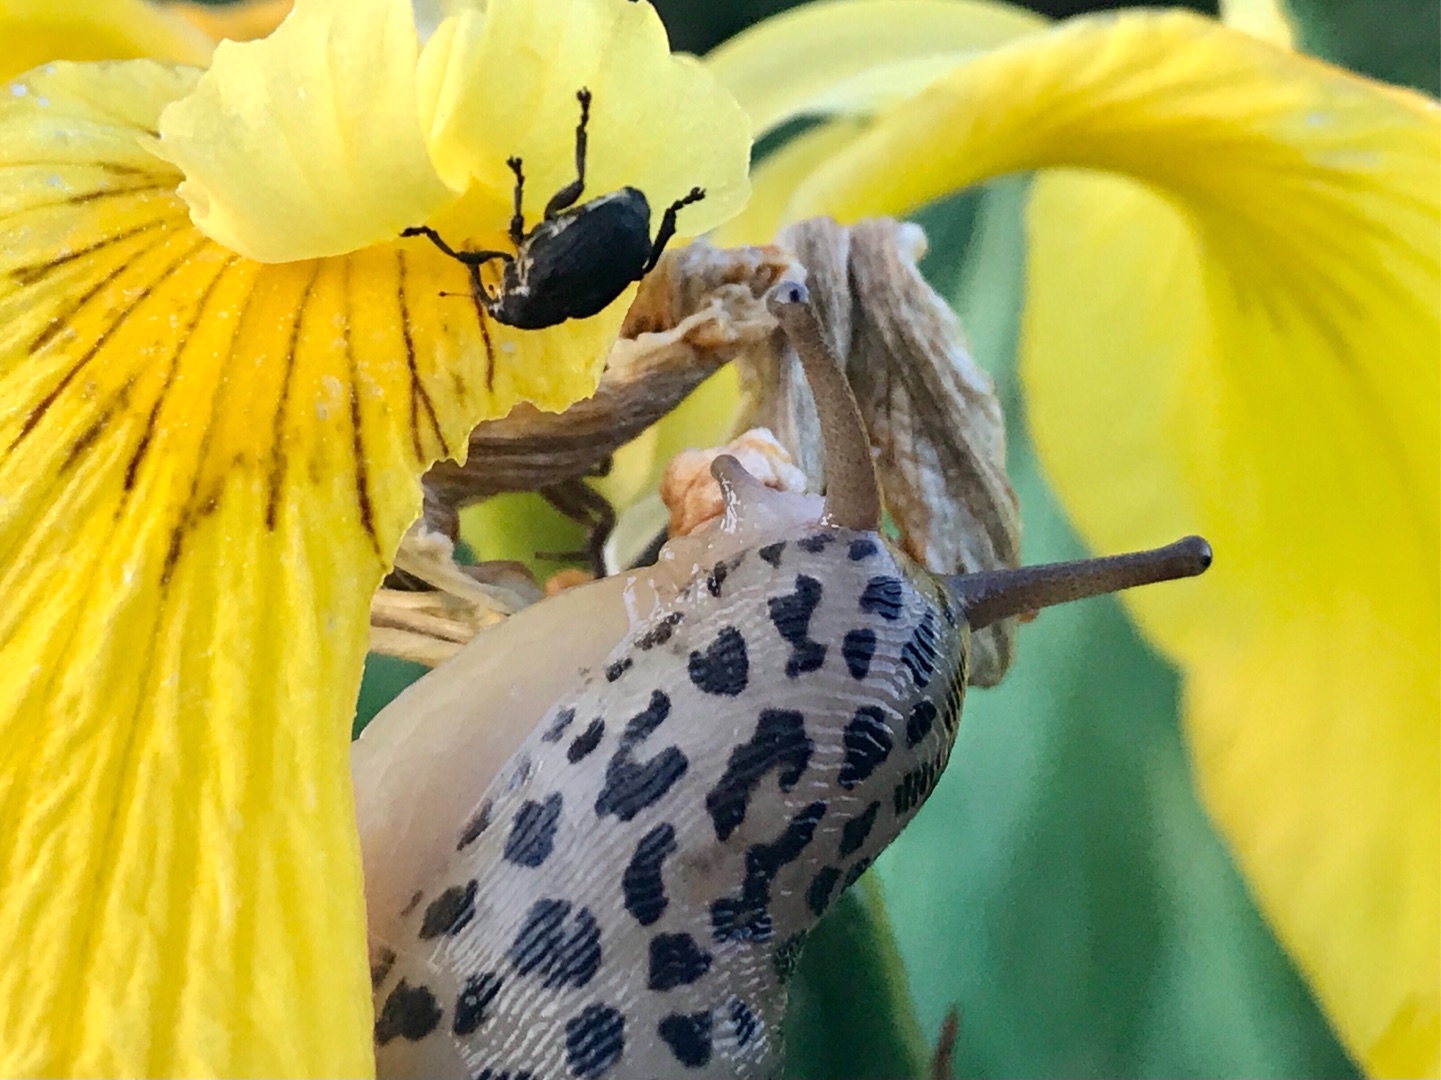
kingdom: Animalia
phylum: Arthropoda
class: Insecta
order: Coleoptera
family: Curculionidae
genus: Mononychus
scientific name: Mononychus punctumalbum
